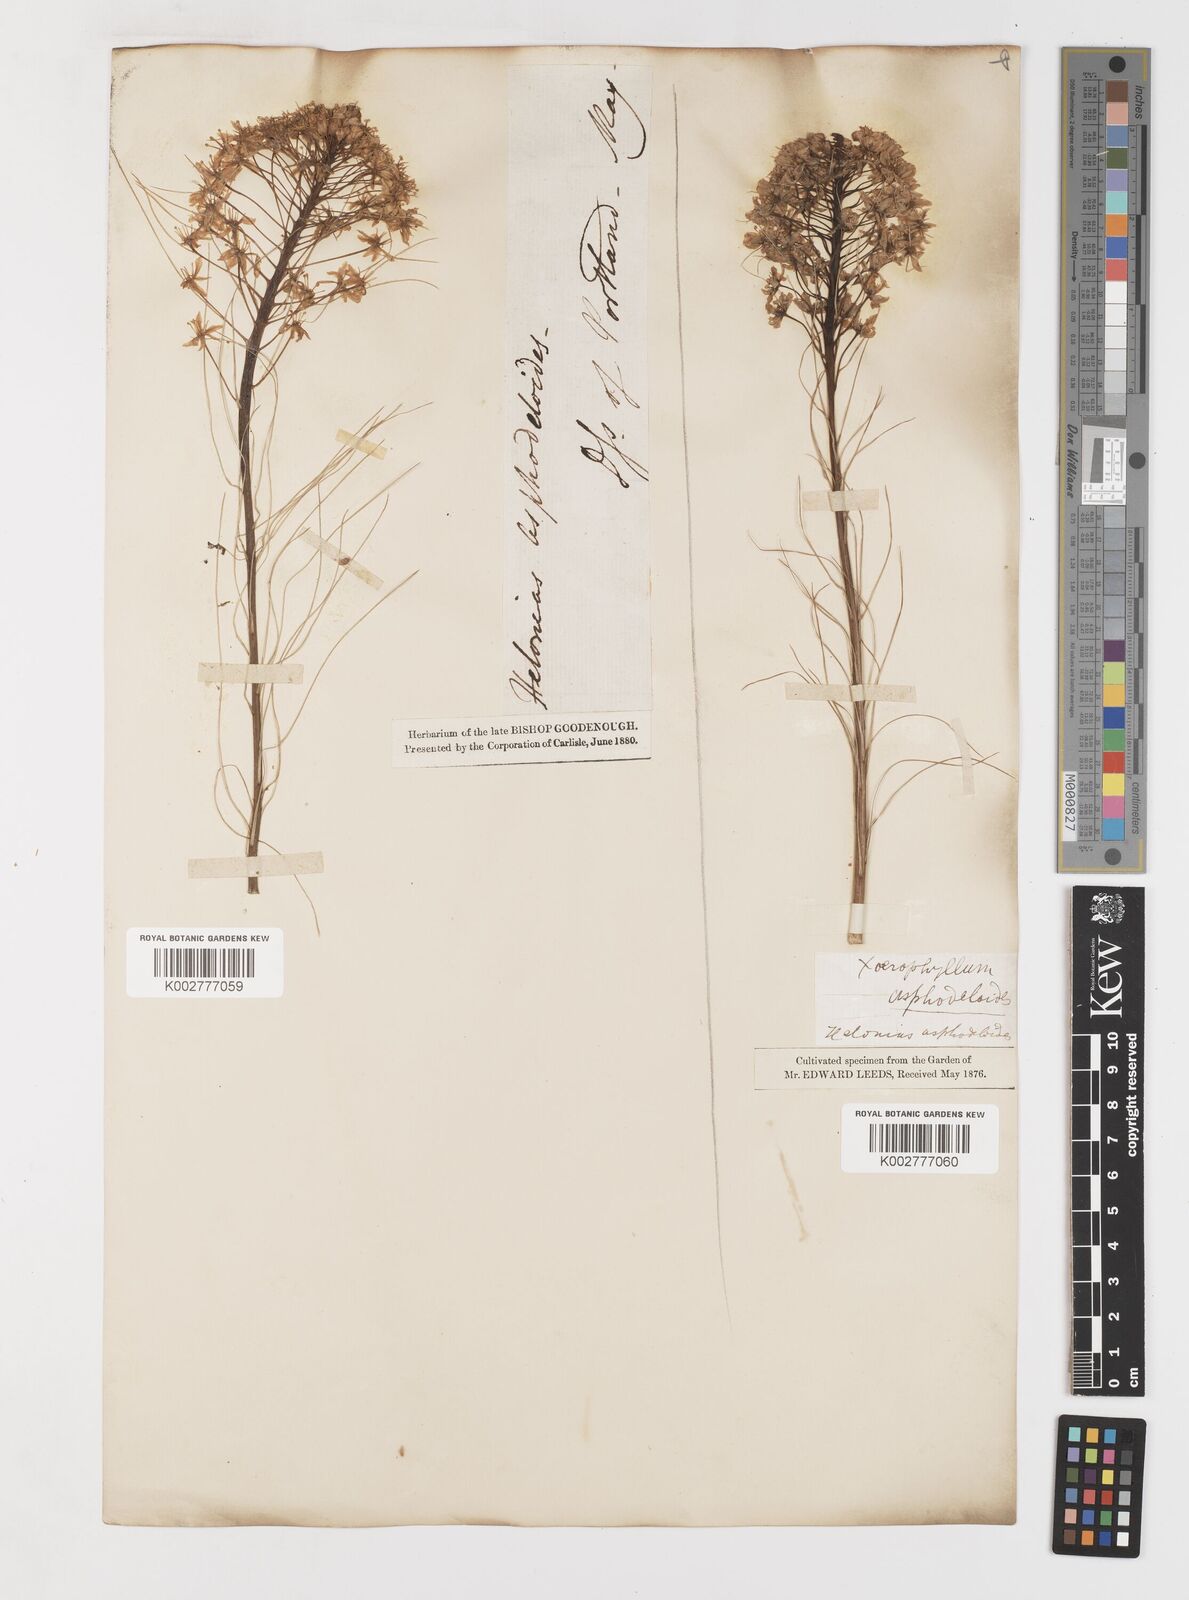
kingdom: Plantae
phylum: Tracheophyta
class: Liliopsida
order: Liliales
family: Melanthiaceae
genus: Xerophyllum
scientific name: Xerophyllum asphodeloides
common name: Mountain-asphodel
